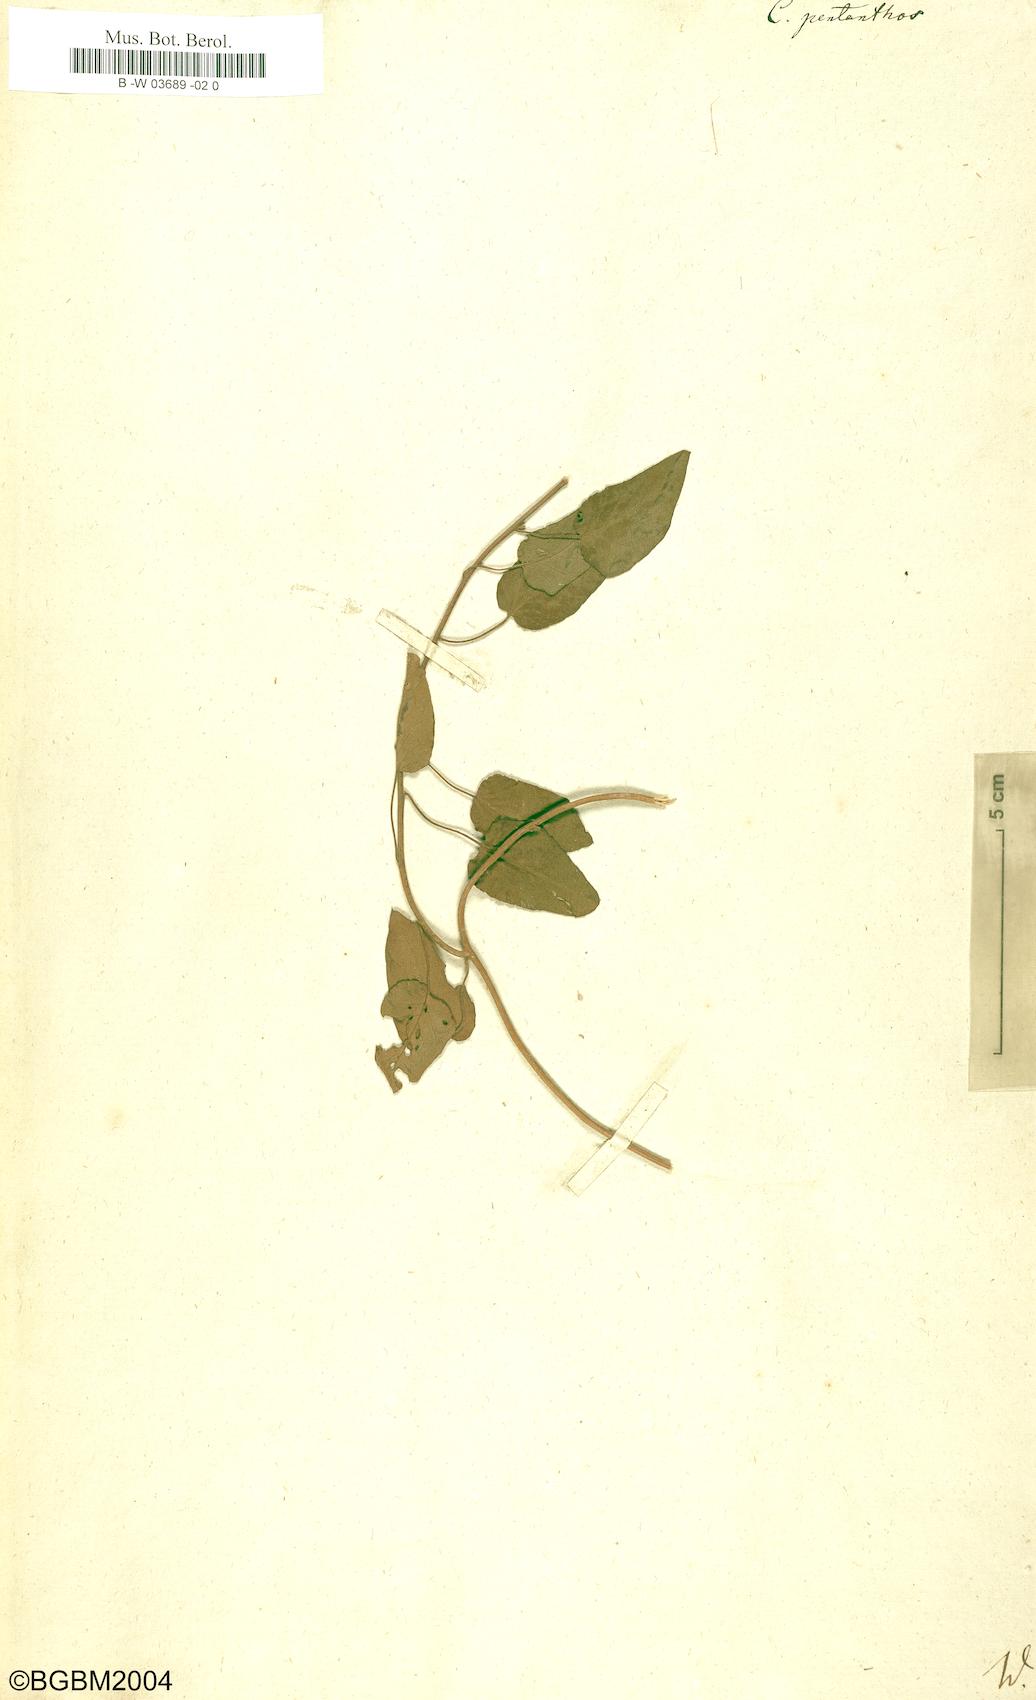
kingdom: Plantae
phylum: Tracheophyta
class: Magnoliopsida
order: Solanales
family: Convolvulaceae
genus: Jacquemontia
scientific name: Jacquemontia pentanthos
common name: Skyblue clustervine
